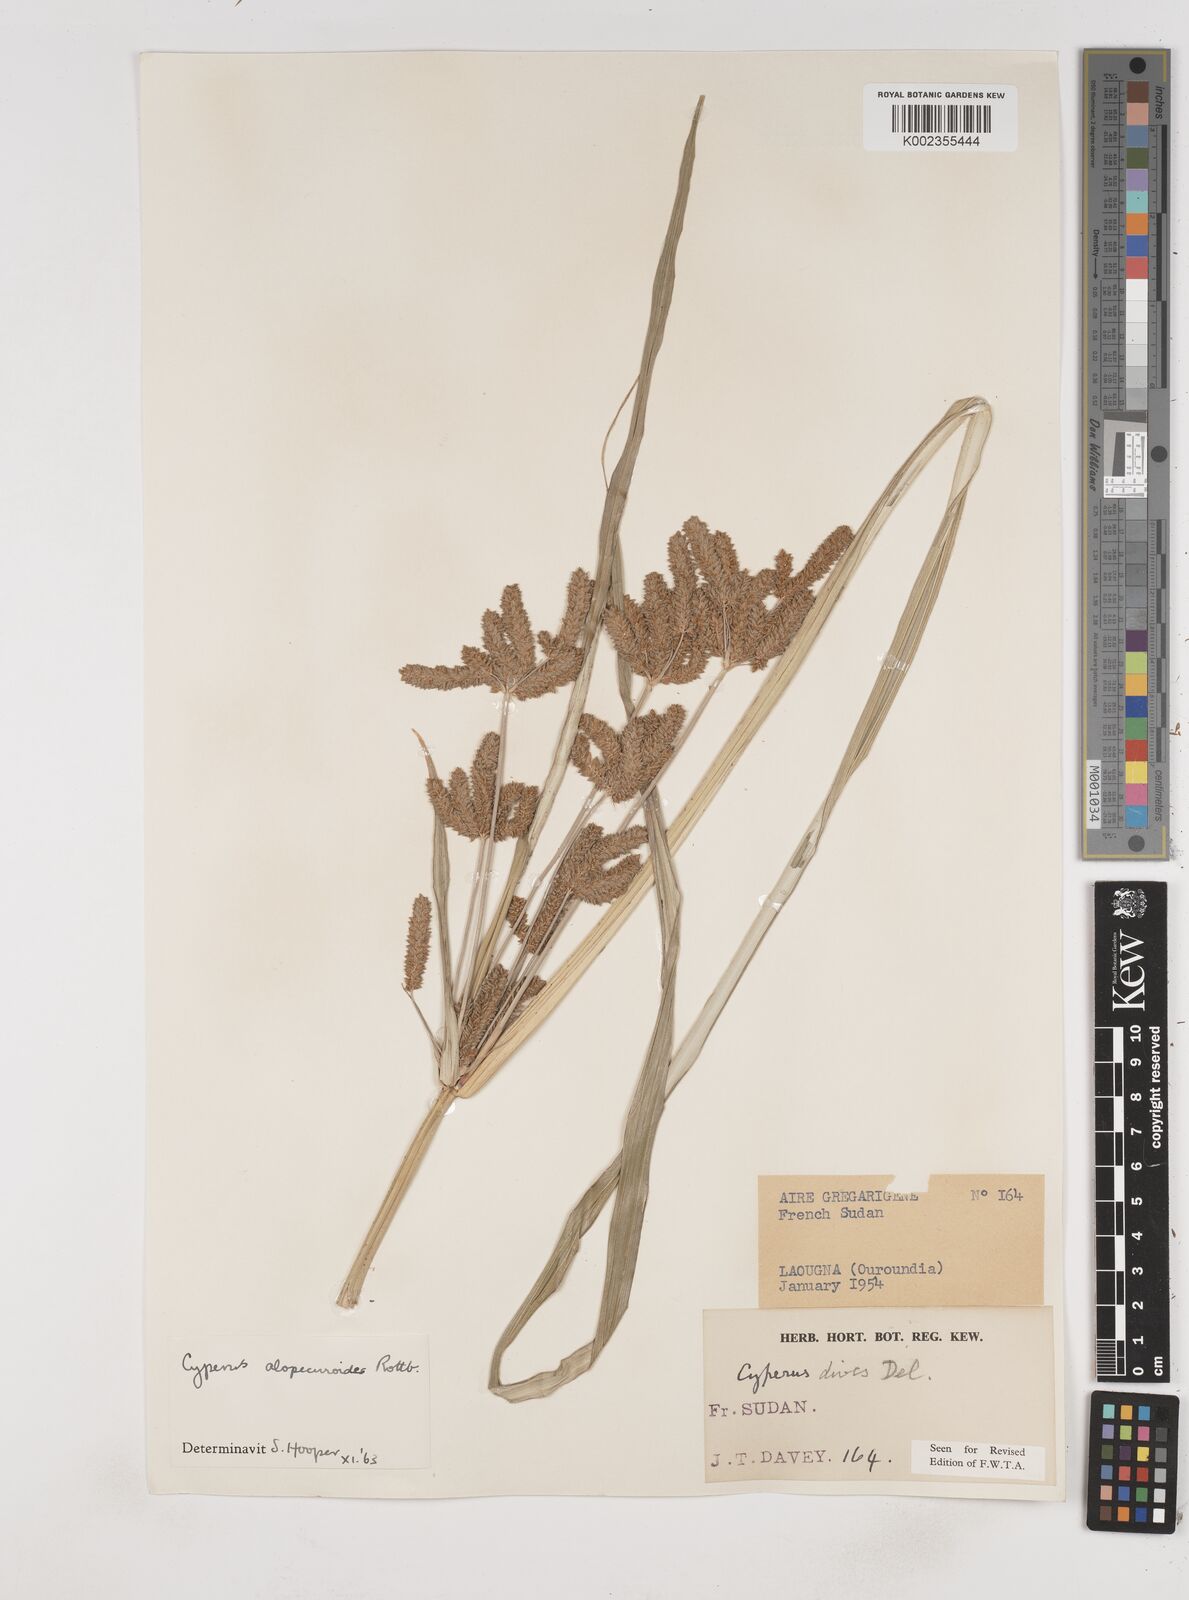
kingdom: Plantae
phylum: Tracheophyta
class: Liliopsida
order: Poales
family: Cyperaceae
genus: Cyperus
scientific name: Cyperus alopecuroides
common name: Foxtail flatsedge
